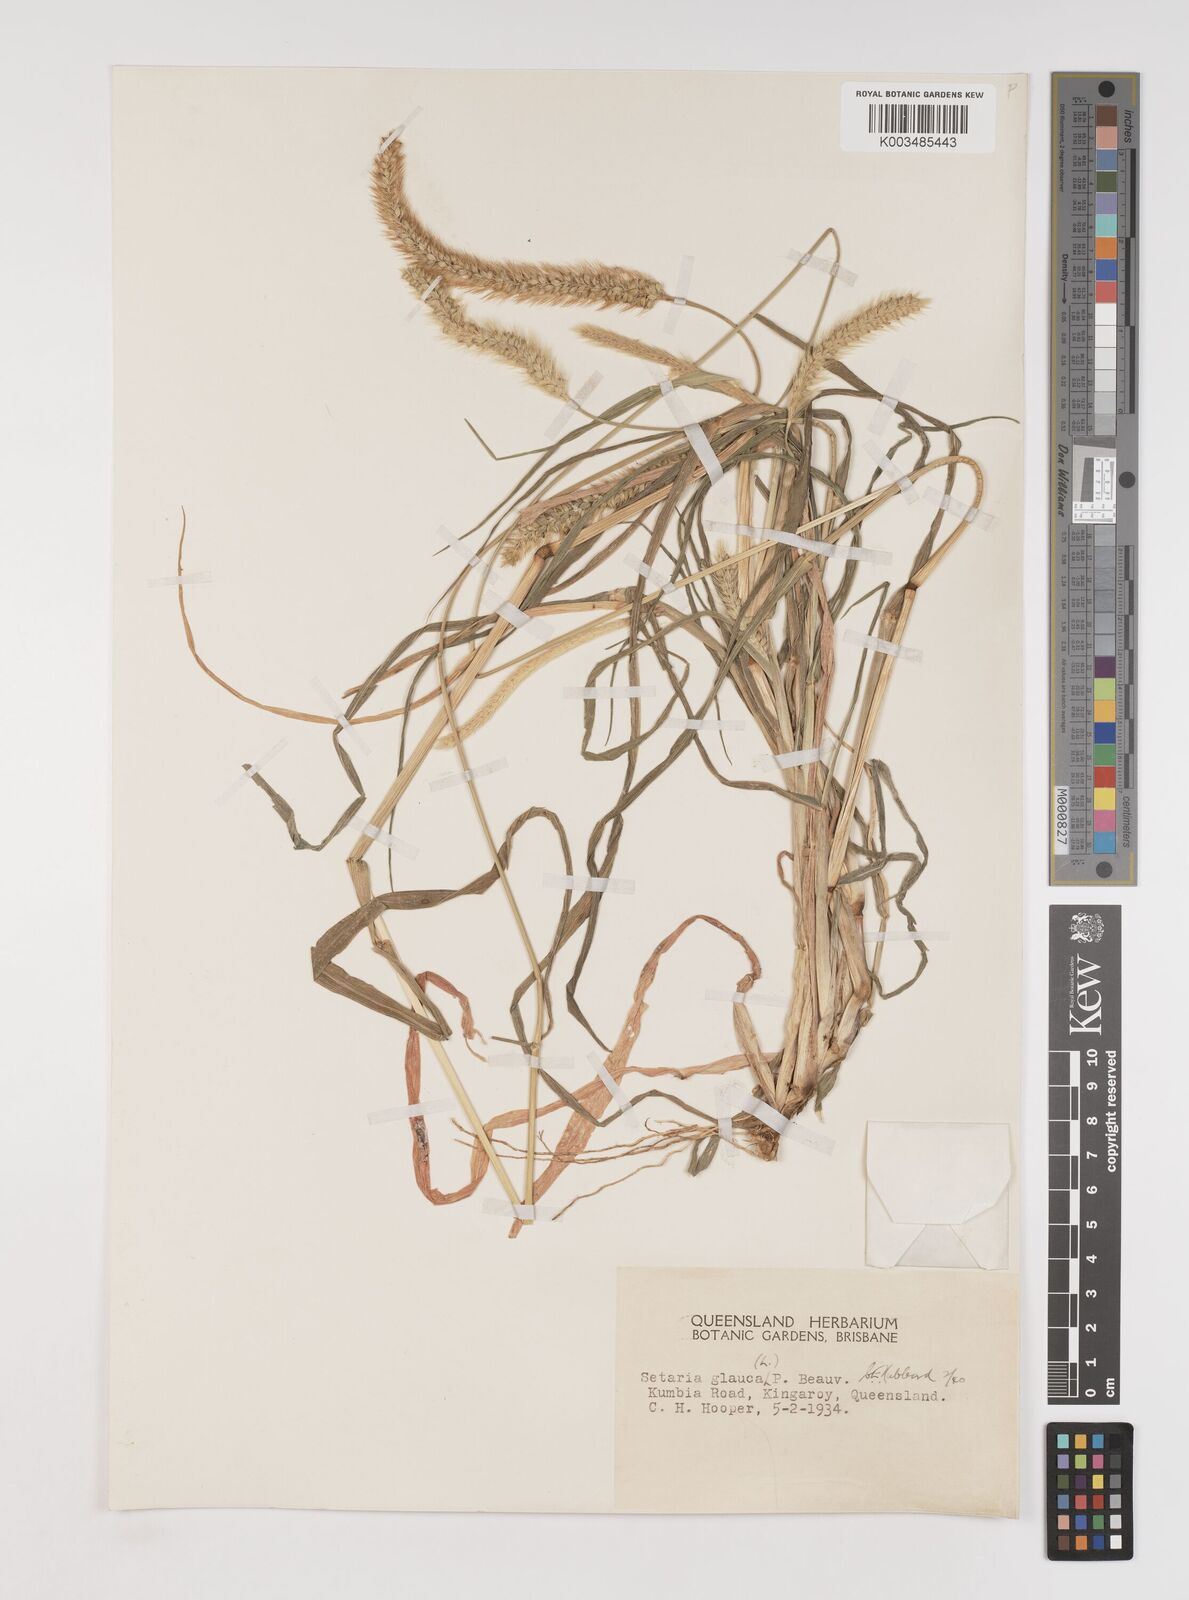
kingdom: Plantae
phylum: Tracheophyta
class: Liliopsida
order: Poales
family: Poaceae
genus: Setaria
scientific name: Setaria pumila
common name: Yellow bristle-grass
